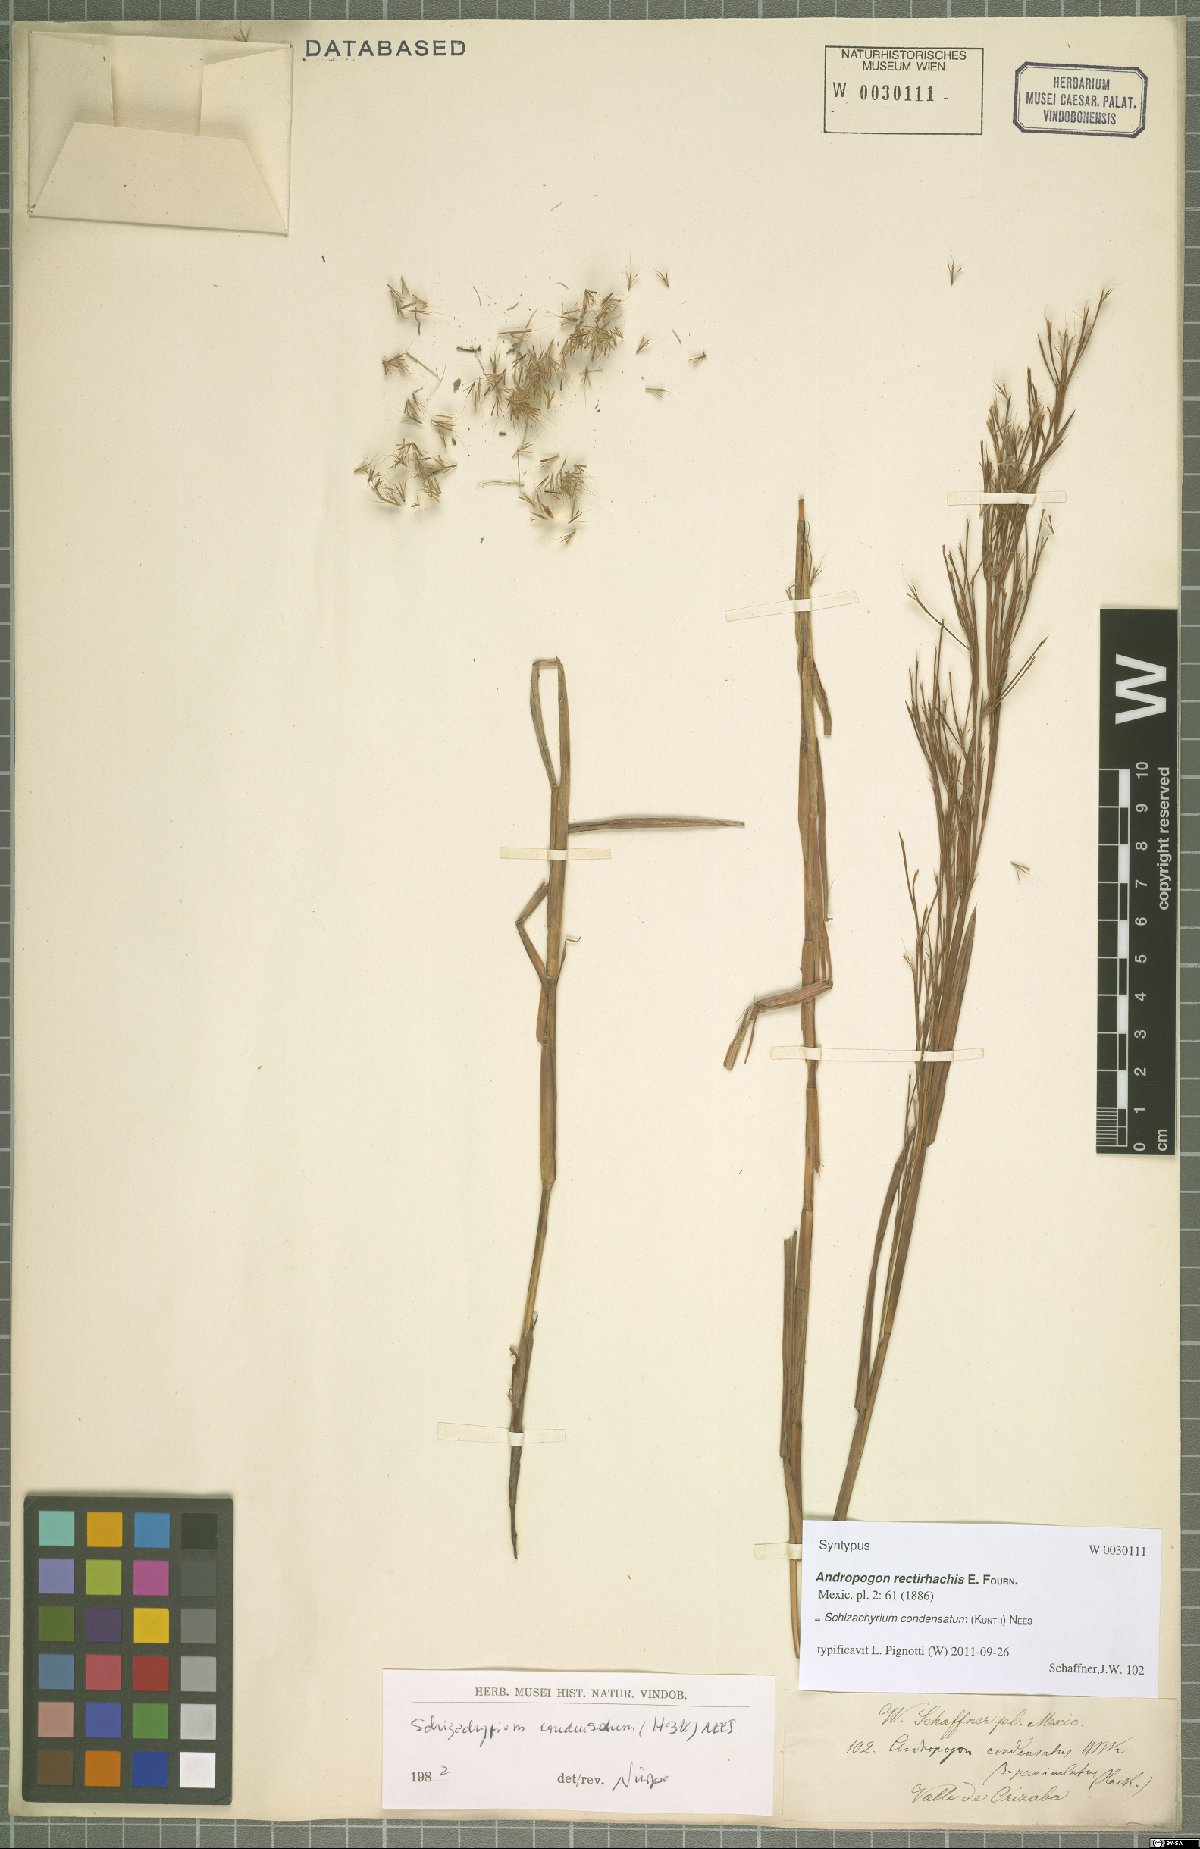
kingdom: Plantae
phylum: Tracheophyta
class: Liliopsida
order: Poales
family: Poaceae
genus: Schizachyrium
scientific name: Schizachyrium condensatum
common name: Bush beardgrass
